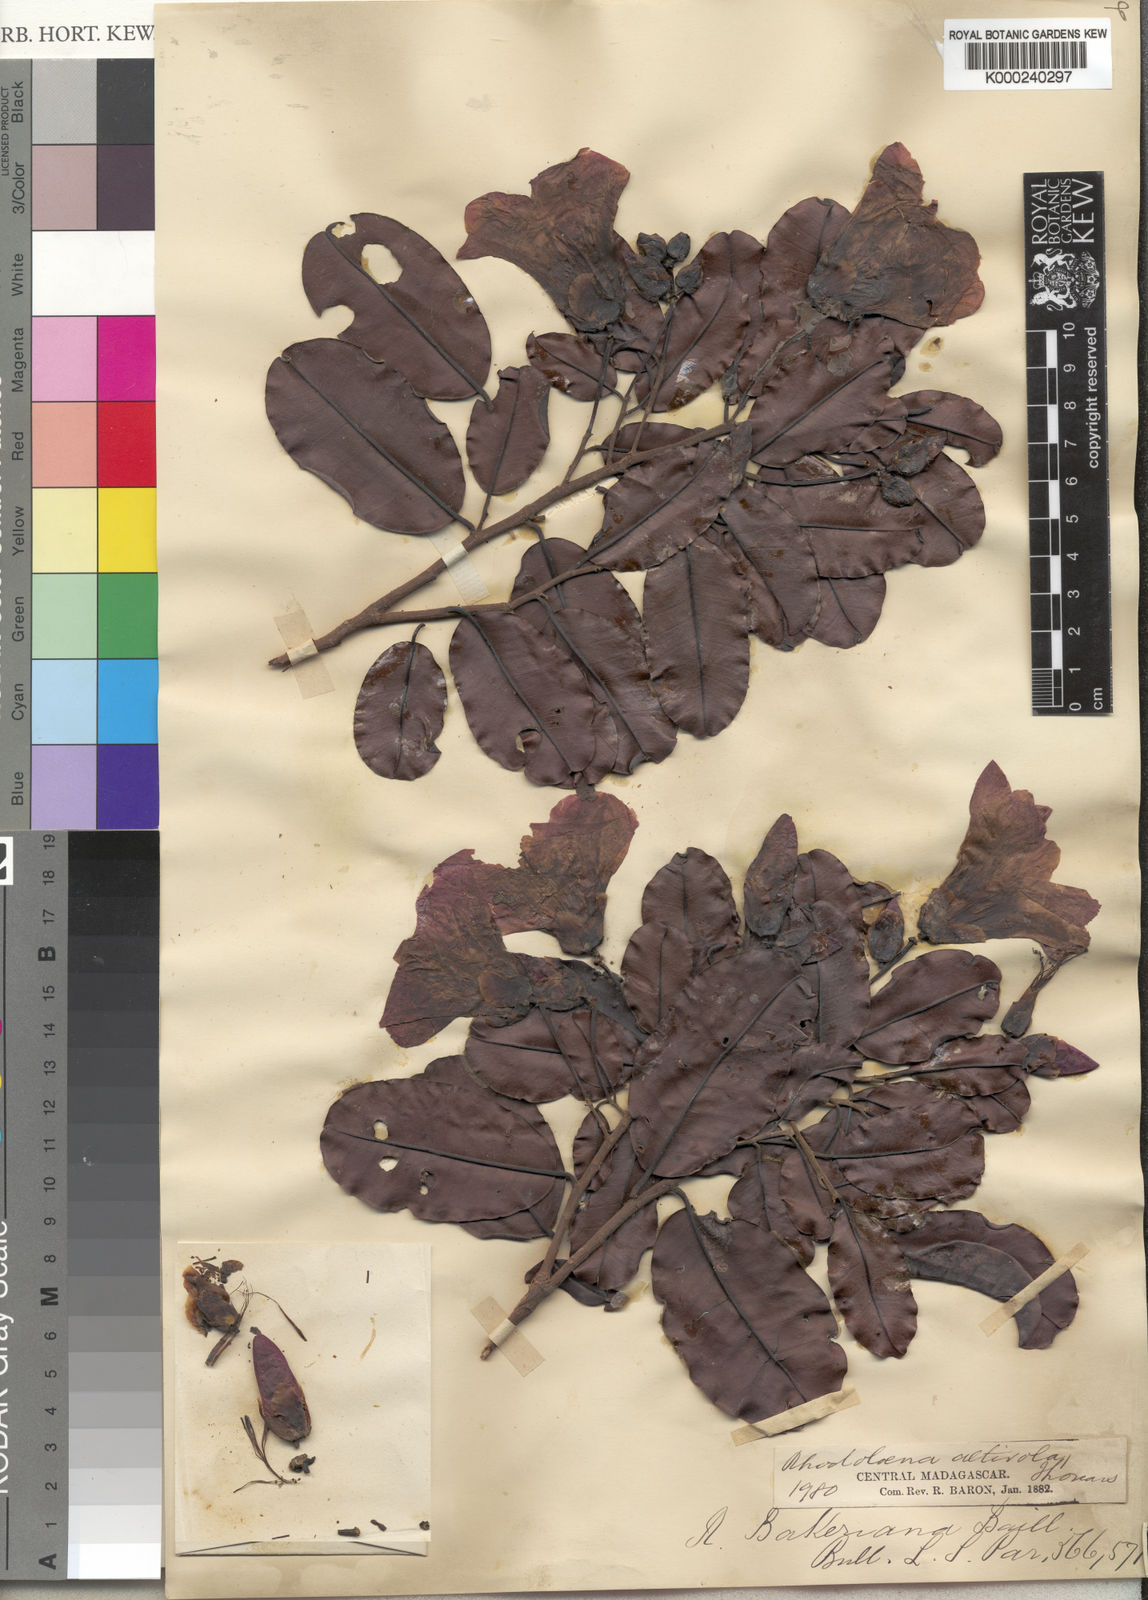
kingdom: Plantae
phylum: Tracheophyta
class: Magnoliopsida
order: Malvales
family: Sarcolaenaceae
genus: Rhodolaena
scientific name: Rhodolaena bakeriana
